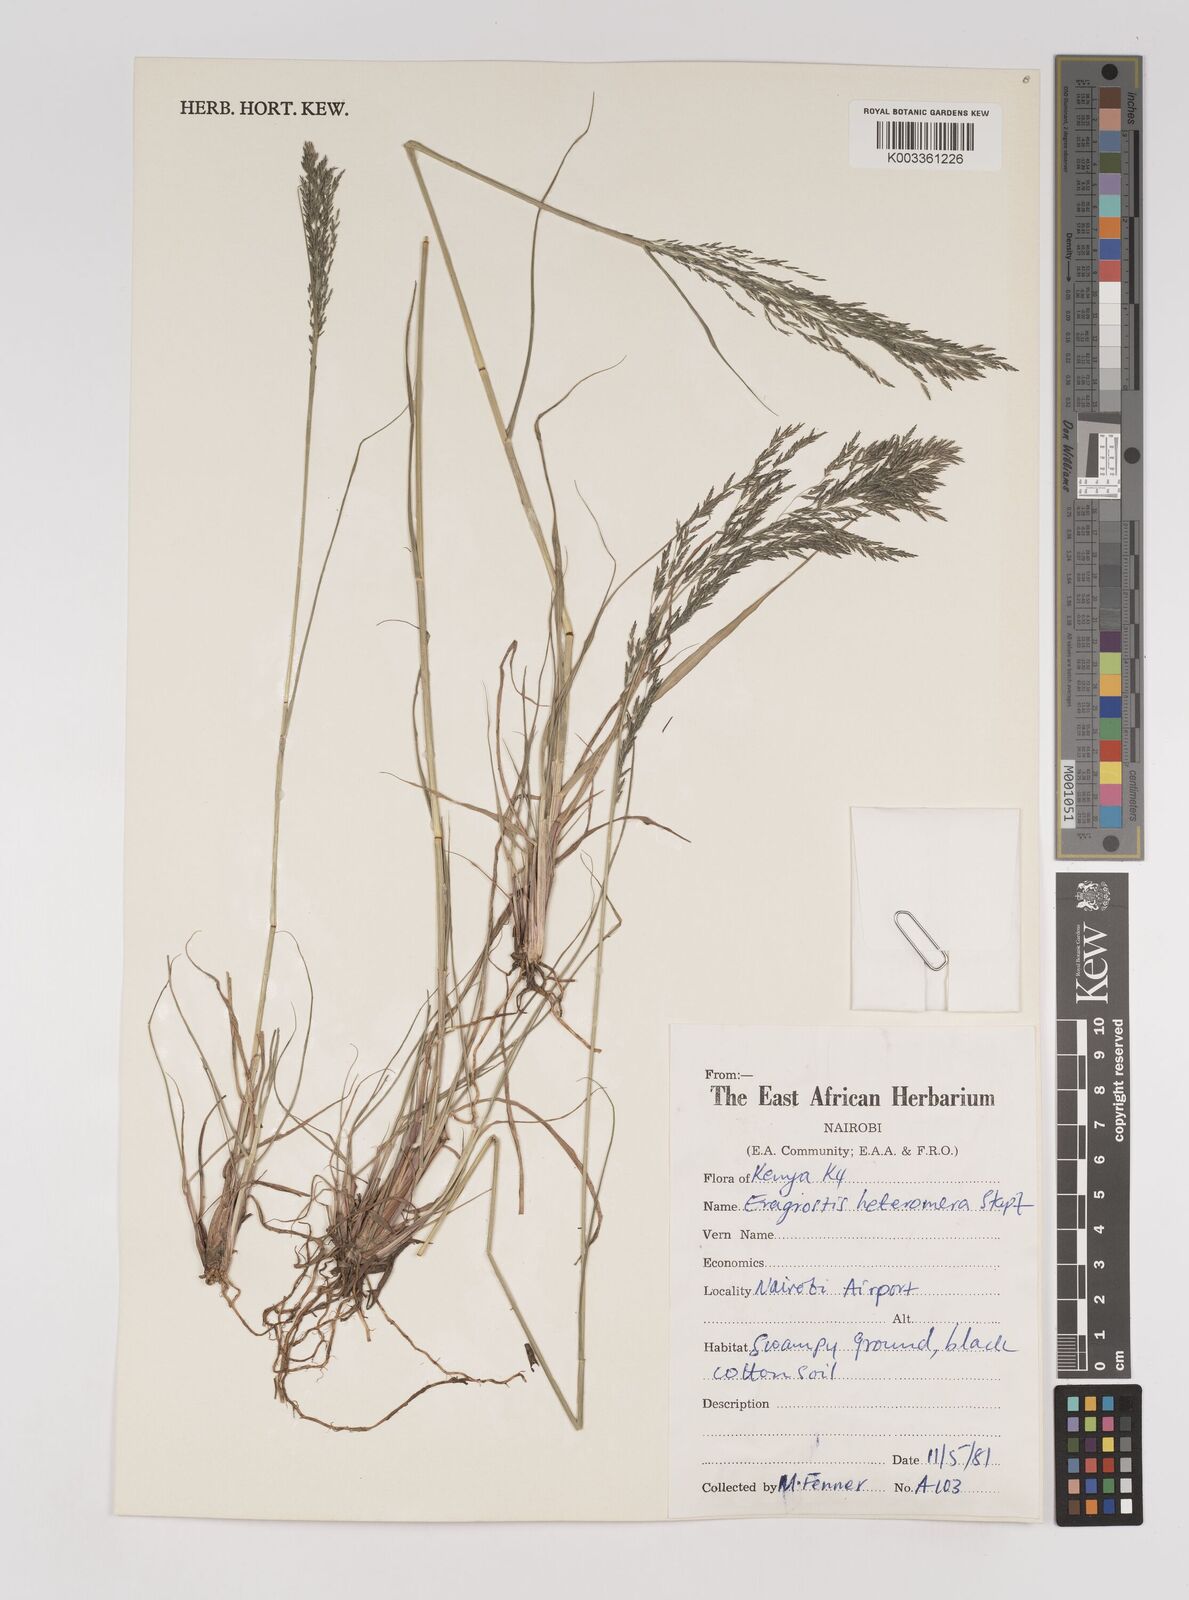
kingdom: Plantae
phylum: Tracheophyta
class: Liliopsida
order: Poales
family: Poaceae
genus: Eragrostis
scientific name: Eragrostis heteromera
